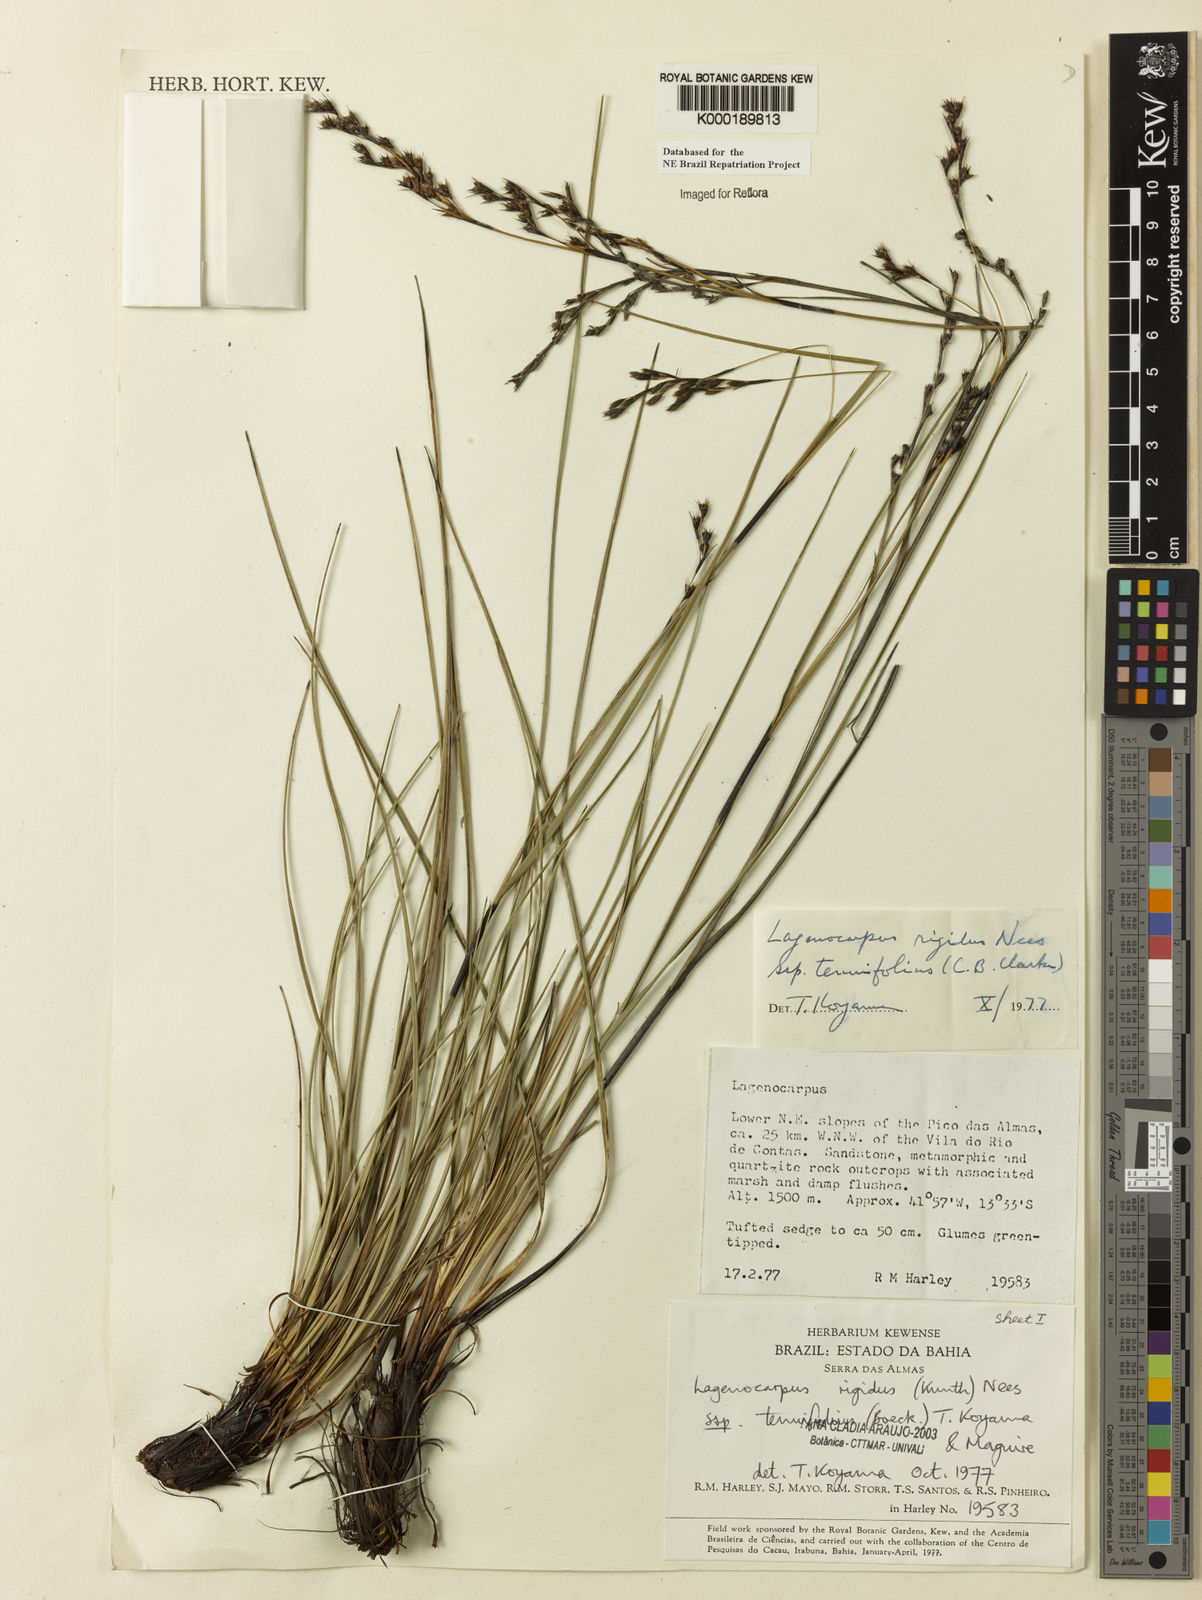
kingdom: Plantae
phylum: Tracheophyta
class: Liliopsida
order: Poales
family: Cyperaceae
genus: Lagenocarpus
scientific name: Lagenocarpus rigidus
